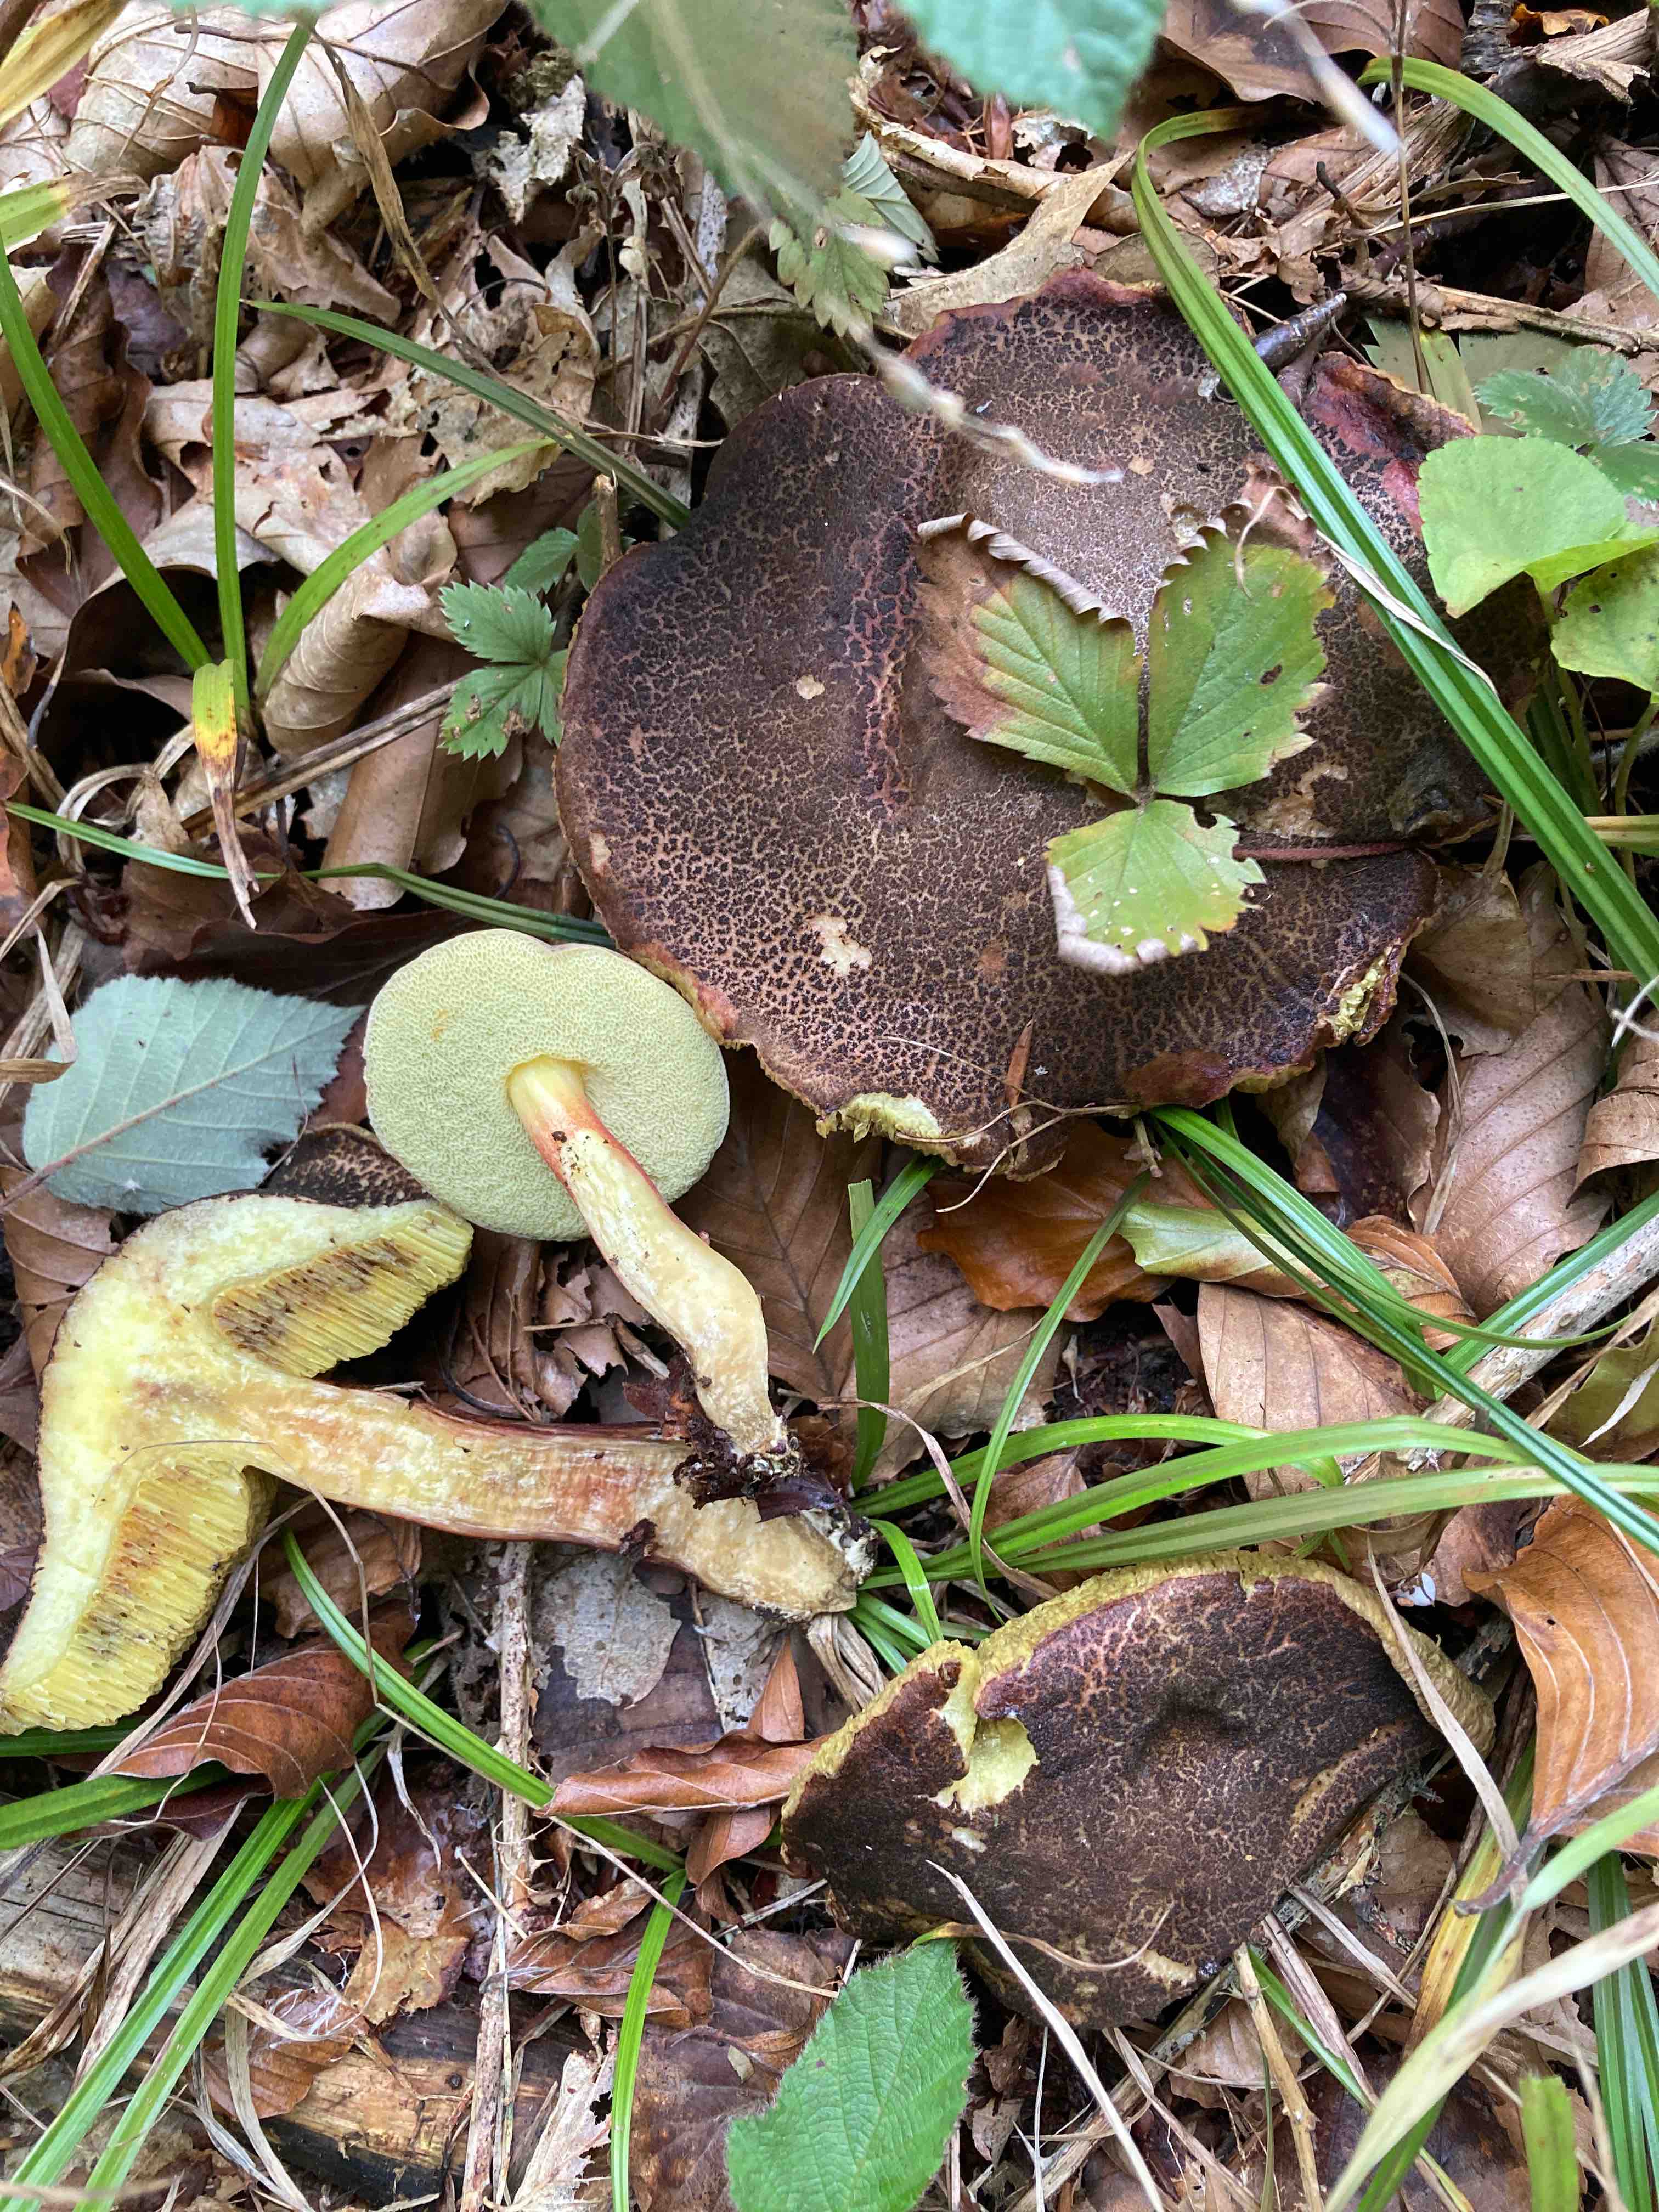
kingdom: Fungi
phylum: Basidiomycota
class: Agaricomycetes
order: Boletales
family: Boletaceae
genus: Xerocomellus
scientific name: Xerocomellus cisalpinus
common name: finsprukken rørhat
